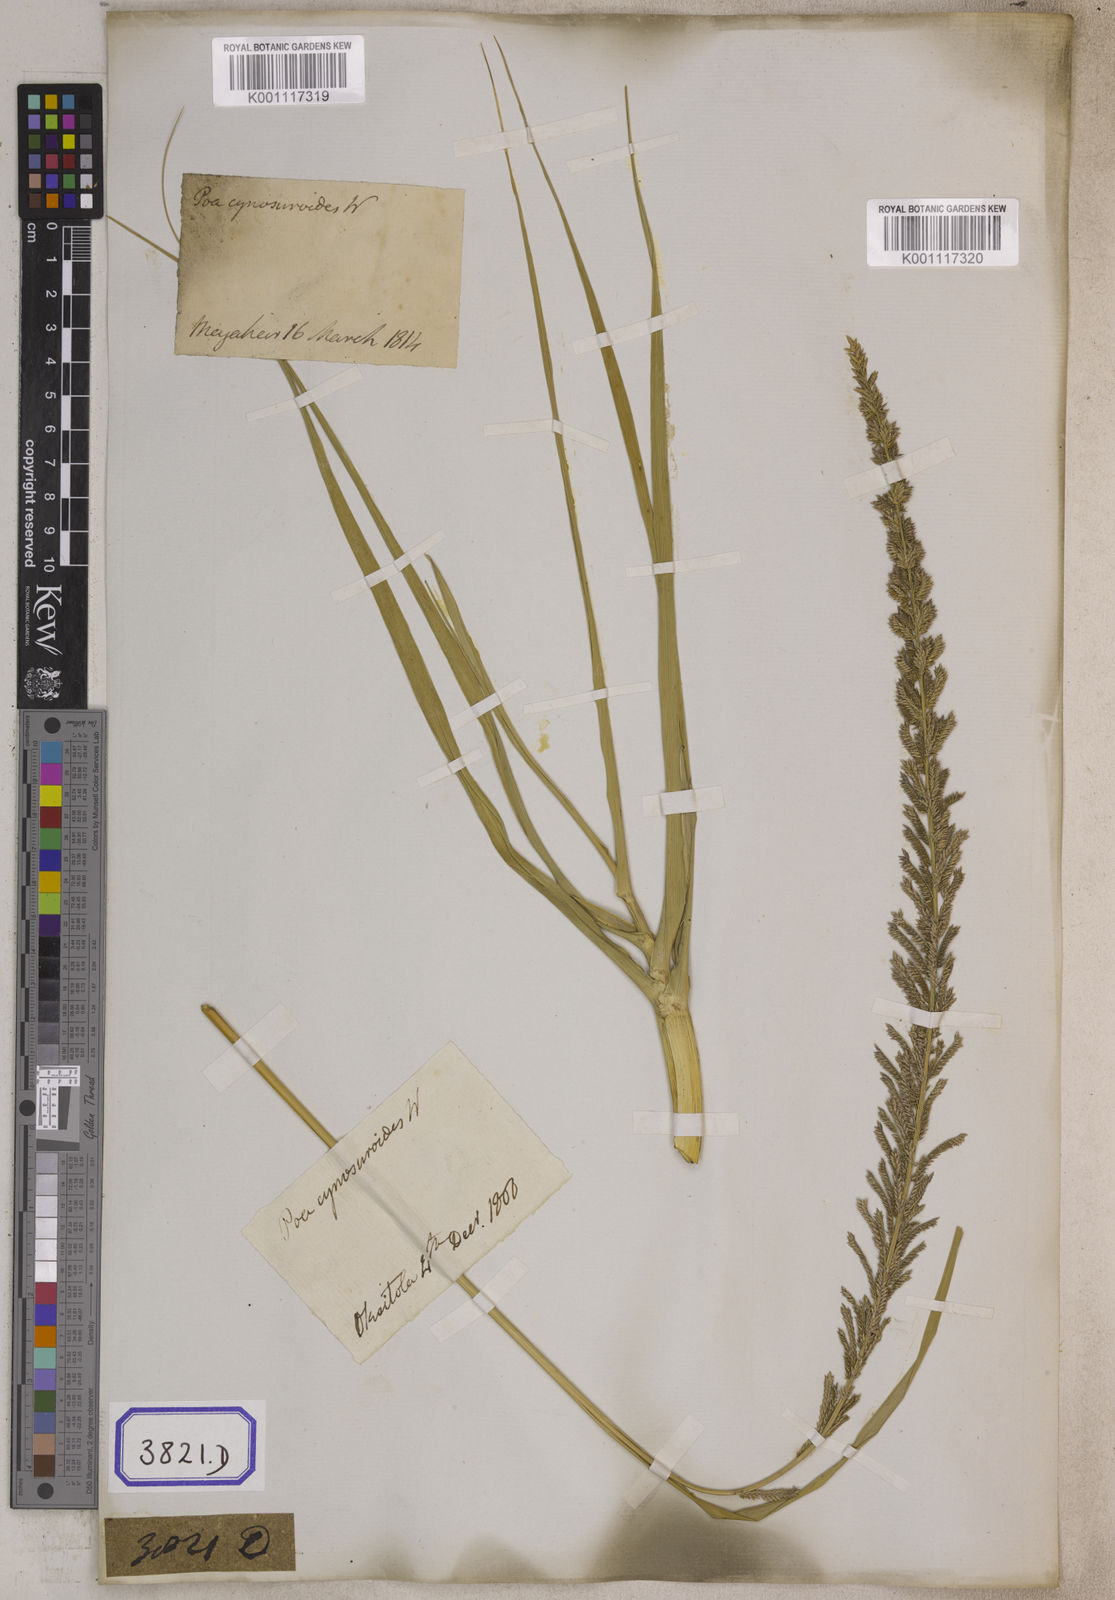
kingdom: Plantae
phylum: Tracheophyta
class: Liliopsida
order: Poales
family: Poaceae
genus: Eragrostis
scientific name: Eragrostis
